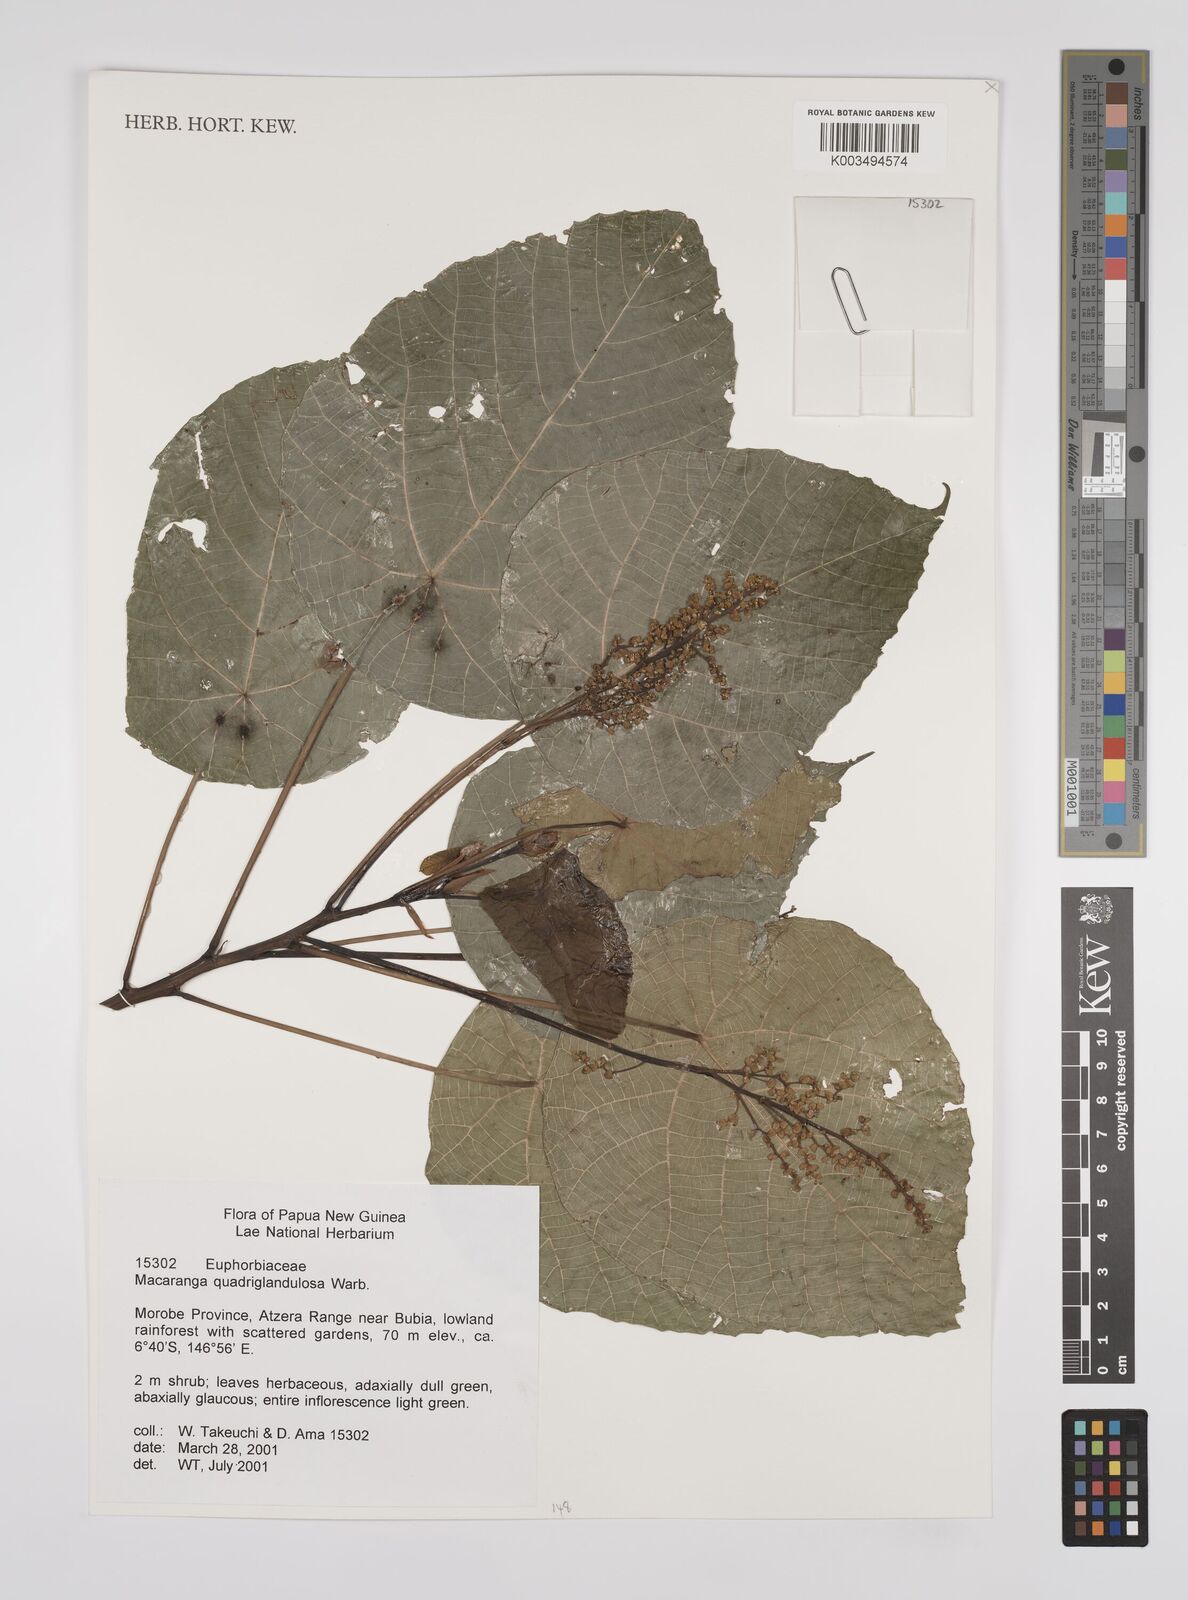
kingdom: Plantae
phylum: Tracheophyta
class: Magnoliopsida
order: Malpighiales
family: Euphorbiaceae
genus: Macaranga
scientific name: Macaranga quadriglandulosa
